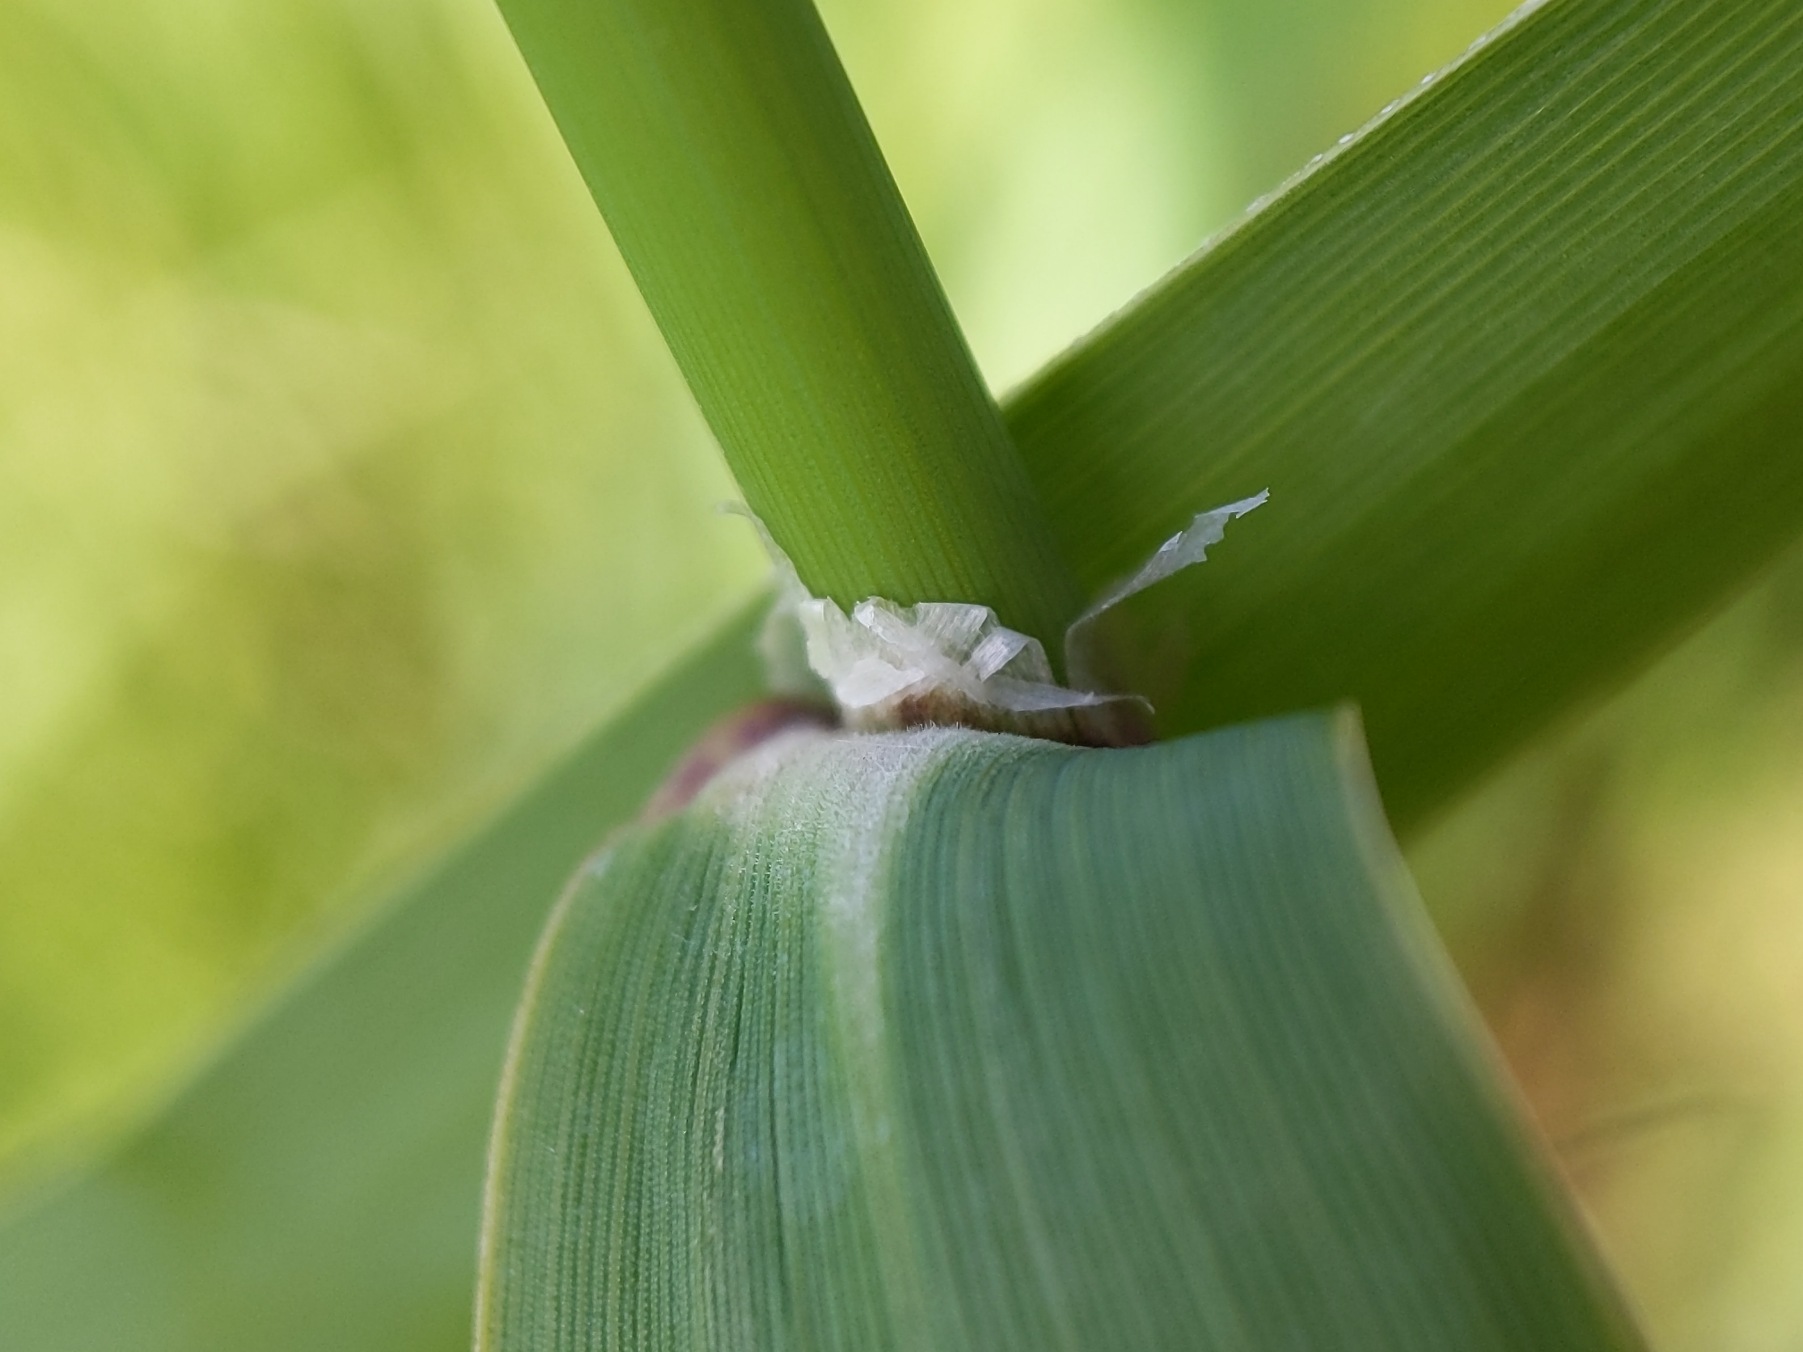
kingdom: Plantae
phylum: Tracheophyta
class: Liliopsida
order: Poales
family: Poaceae
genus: Phalaris
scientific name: Phalaris arundinacea
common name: Rørgræs
